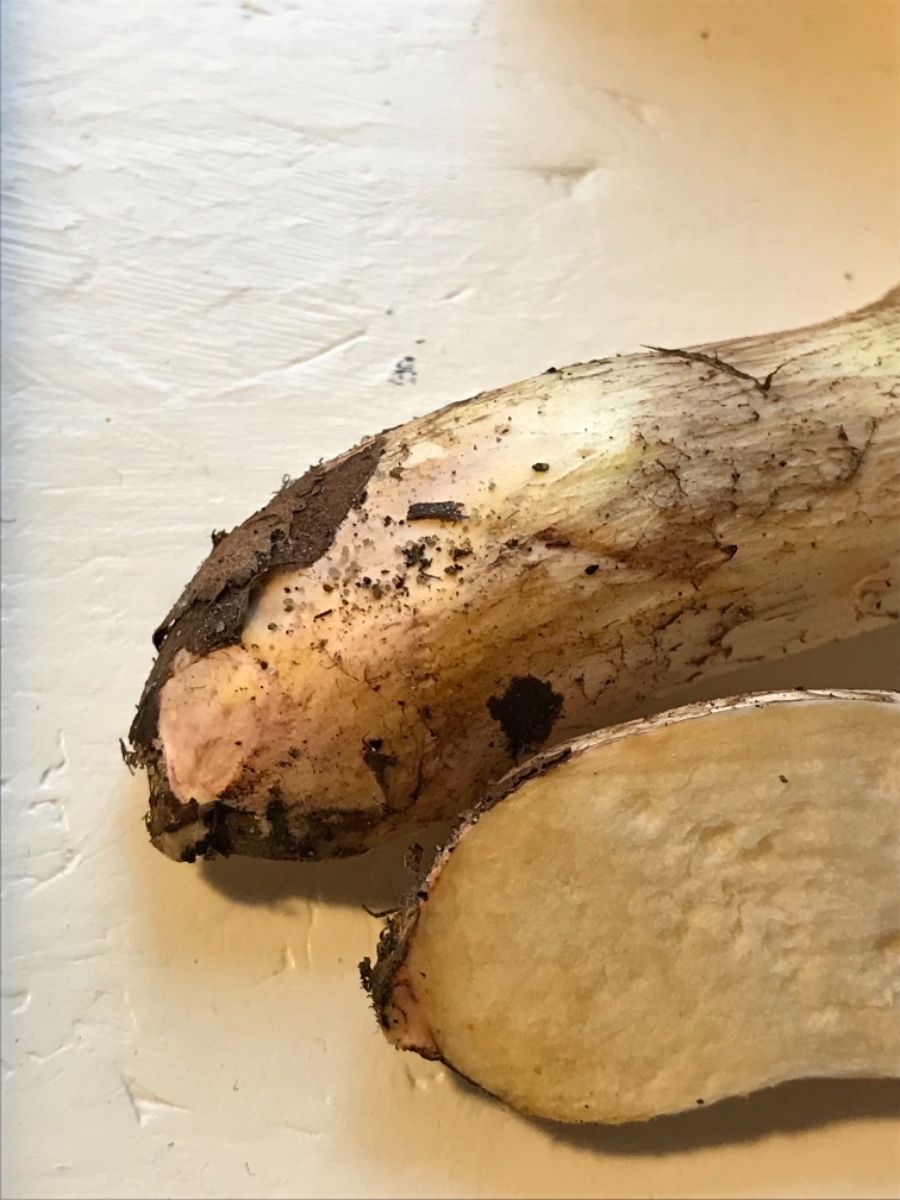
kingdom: Fungi
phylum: Basidiomycota
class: Agaricomycetes
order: Boletales
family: Suillaceae
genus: Suillus
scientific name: Suillus collinitus
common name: rosafodet slimrørhat
